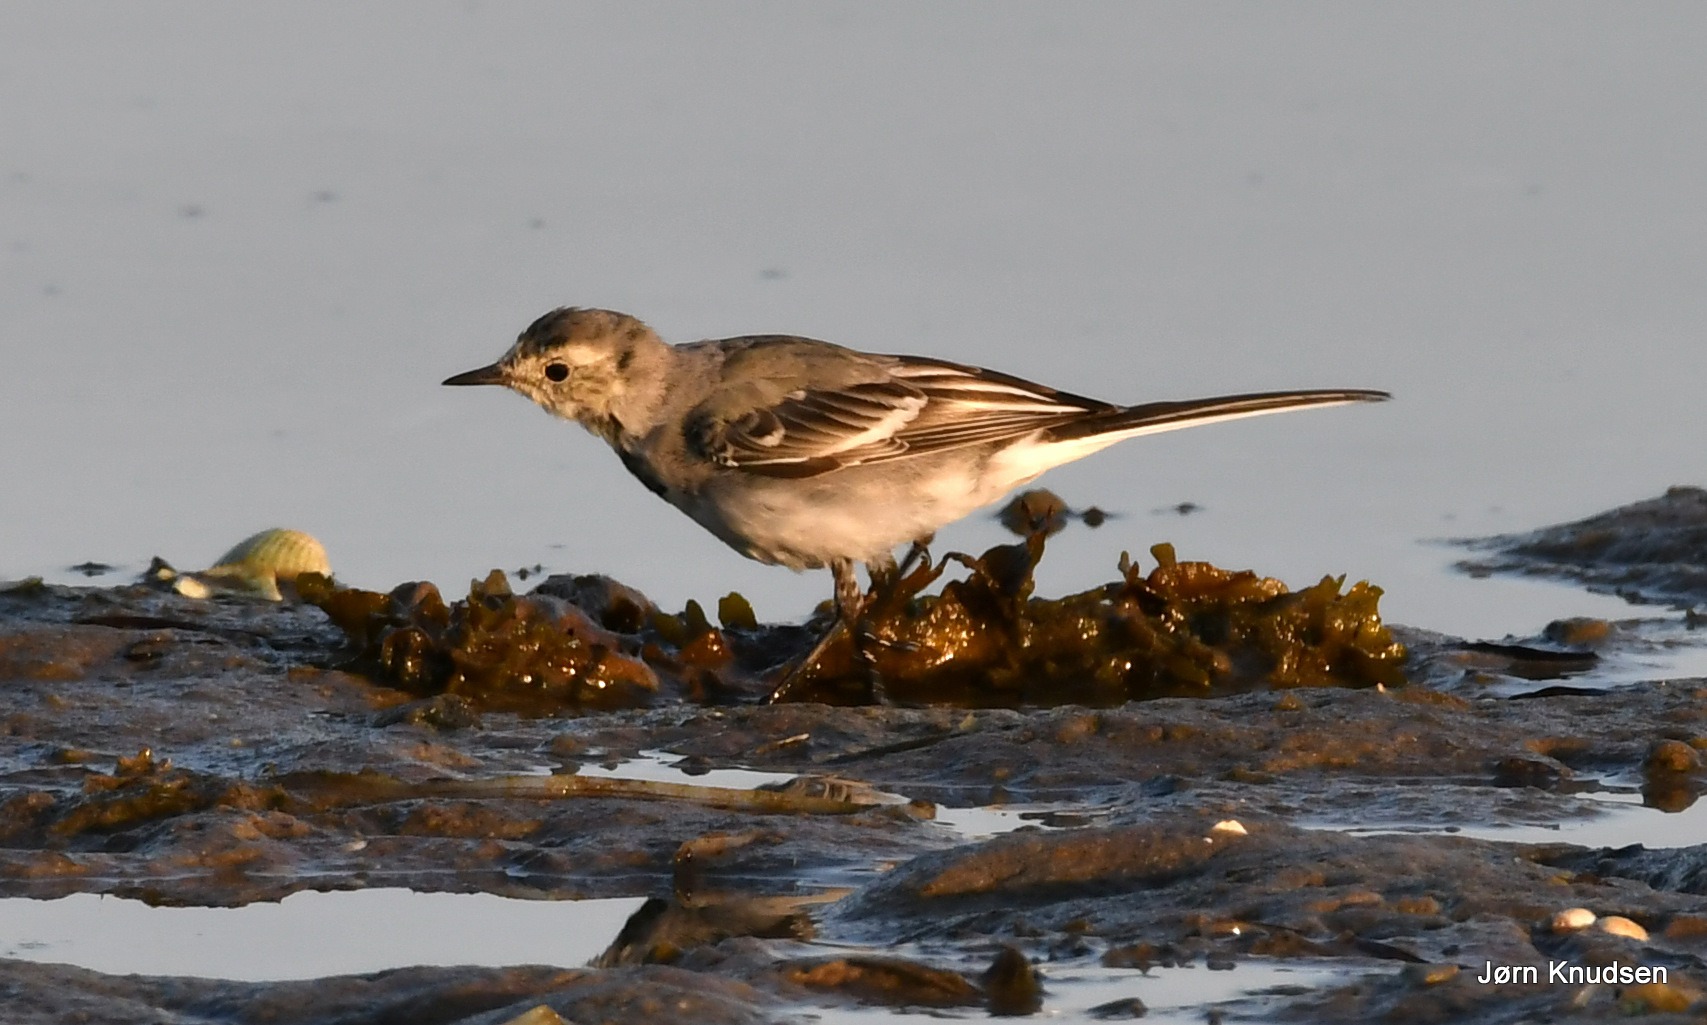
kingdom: Animalia
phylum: Chordata
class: Aves
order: Passeriformes
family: Motacillidae
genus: Motacilla
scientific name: Motacilla alba
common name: Hvid vipstjert
